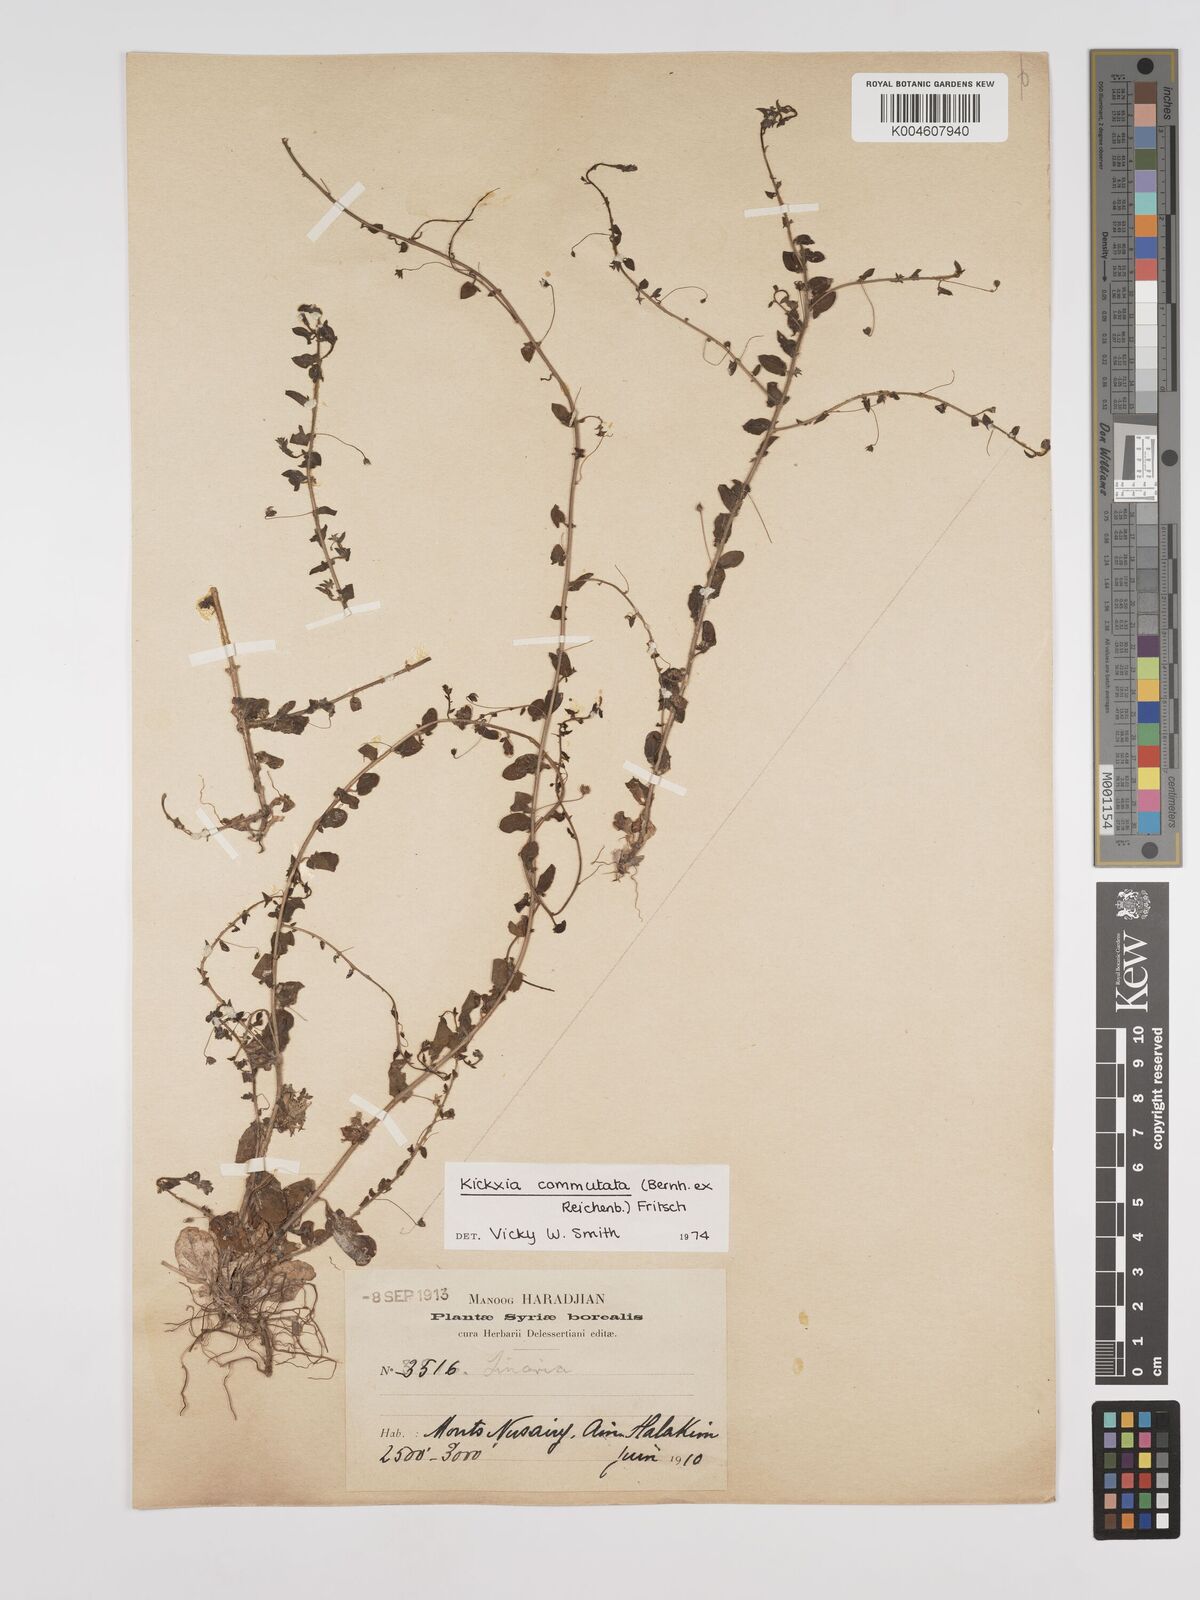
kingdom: Plantae
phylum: Tracheophyta
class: Magnoliopsida
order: Lamiales
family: Plantaginaceae
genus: Kickxia
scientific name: Kickxia commutata
